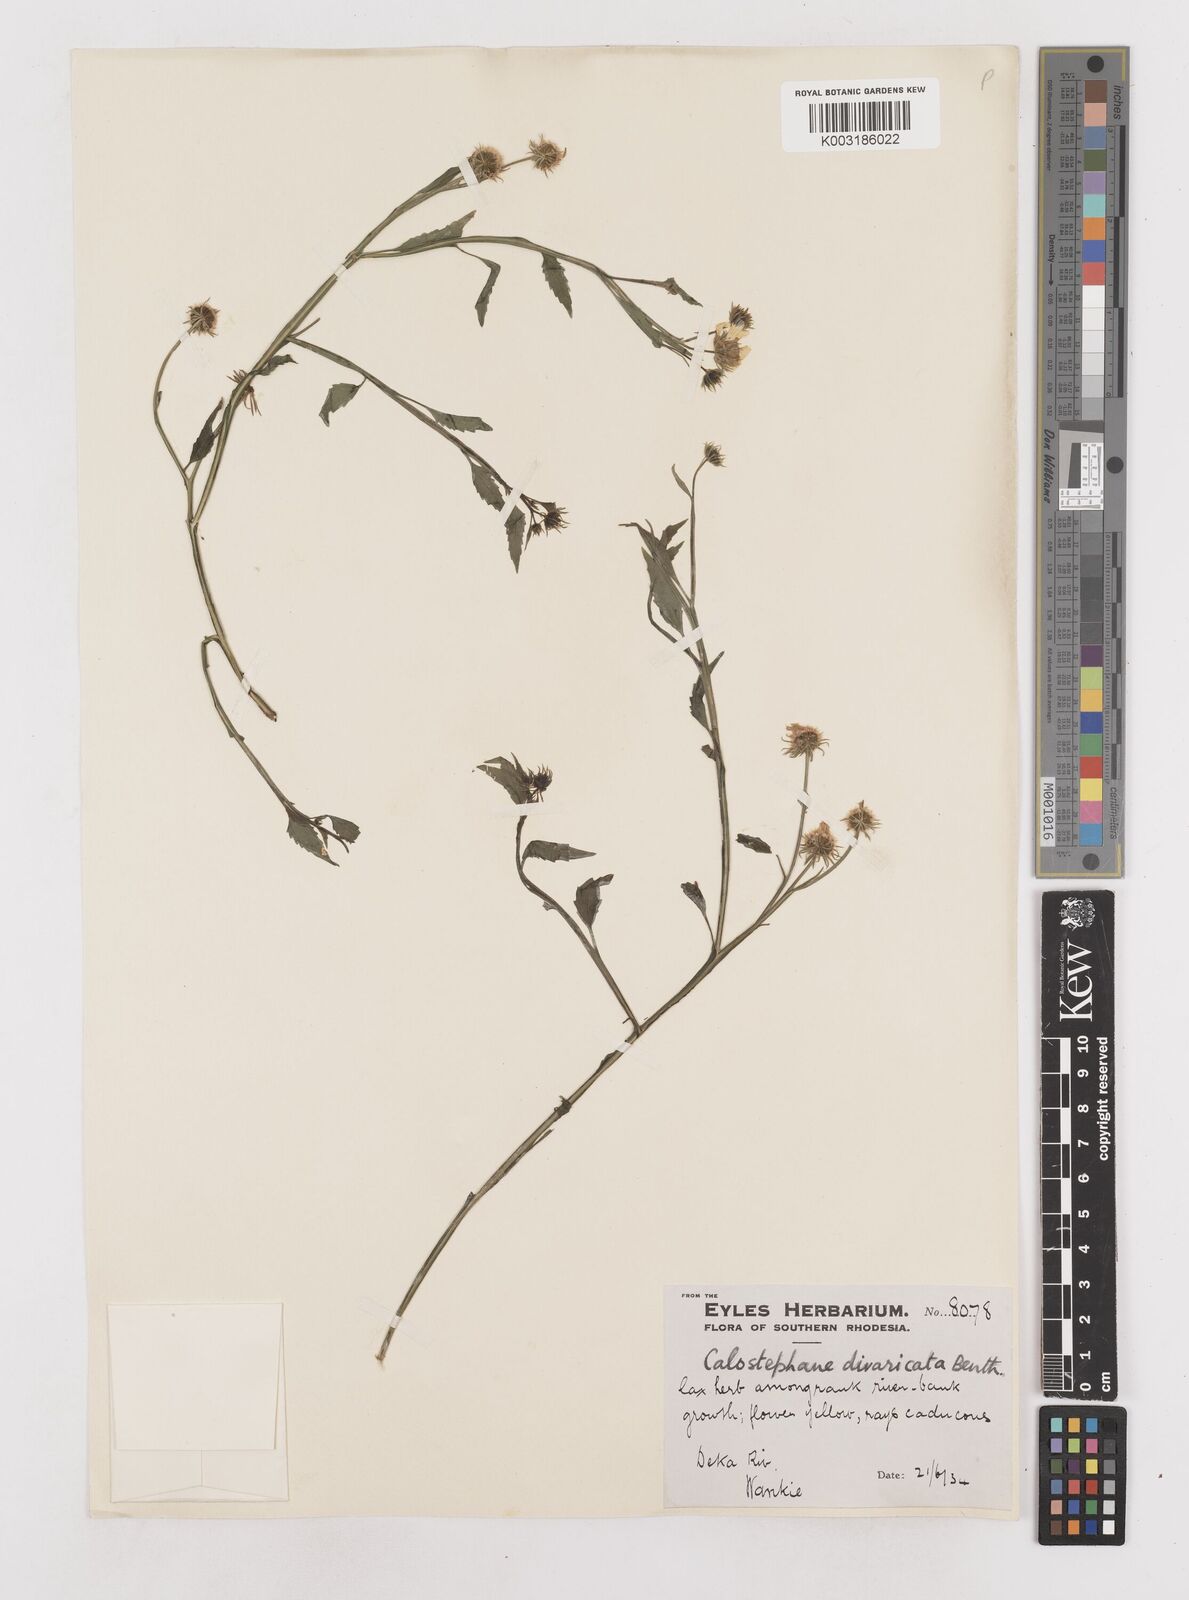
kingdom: Plantae
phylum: Tracheophyta
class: Magnoliopsida
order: Asterales
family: Asteraceae
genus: Calostephane
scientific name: Calostephane divaricata
